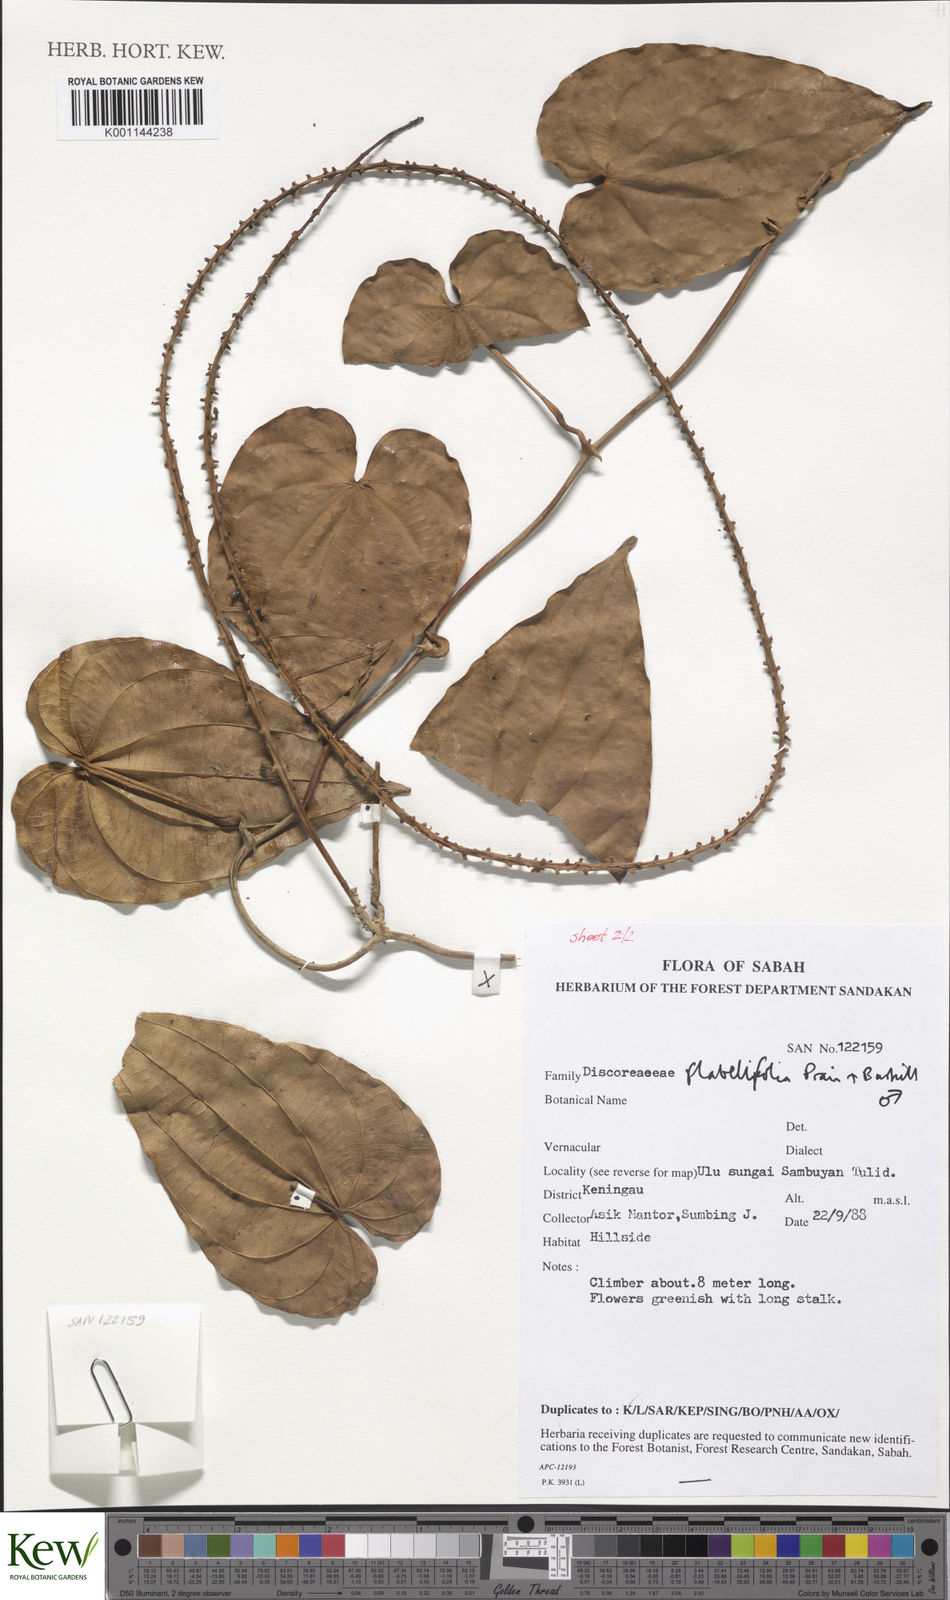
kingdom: Plantae
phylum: Tracheophyta
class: Liliopsida
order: Dioscoreales
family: Dioscoreaceae
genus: Dioscorea
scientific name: Dioscorea flabellifolia
